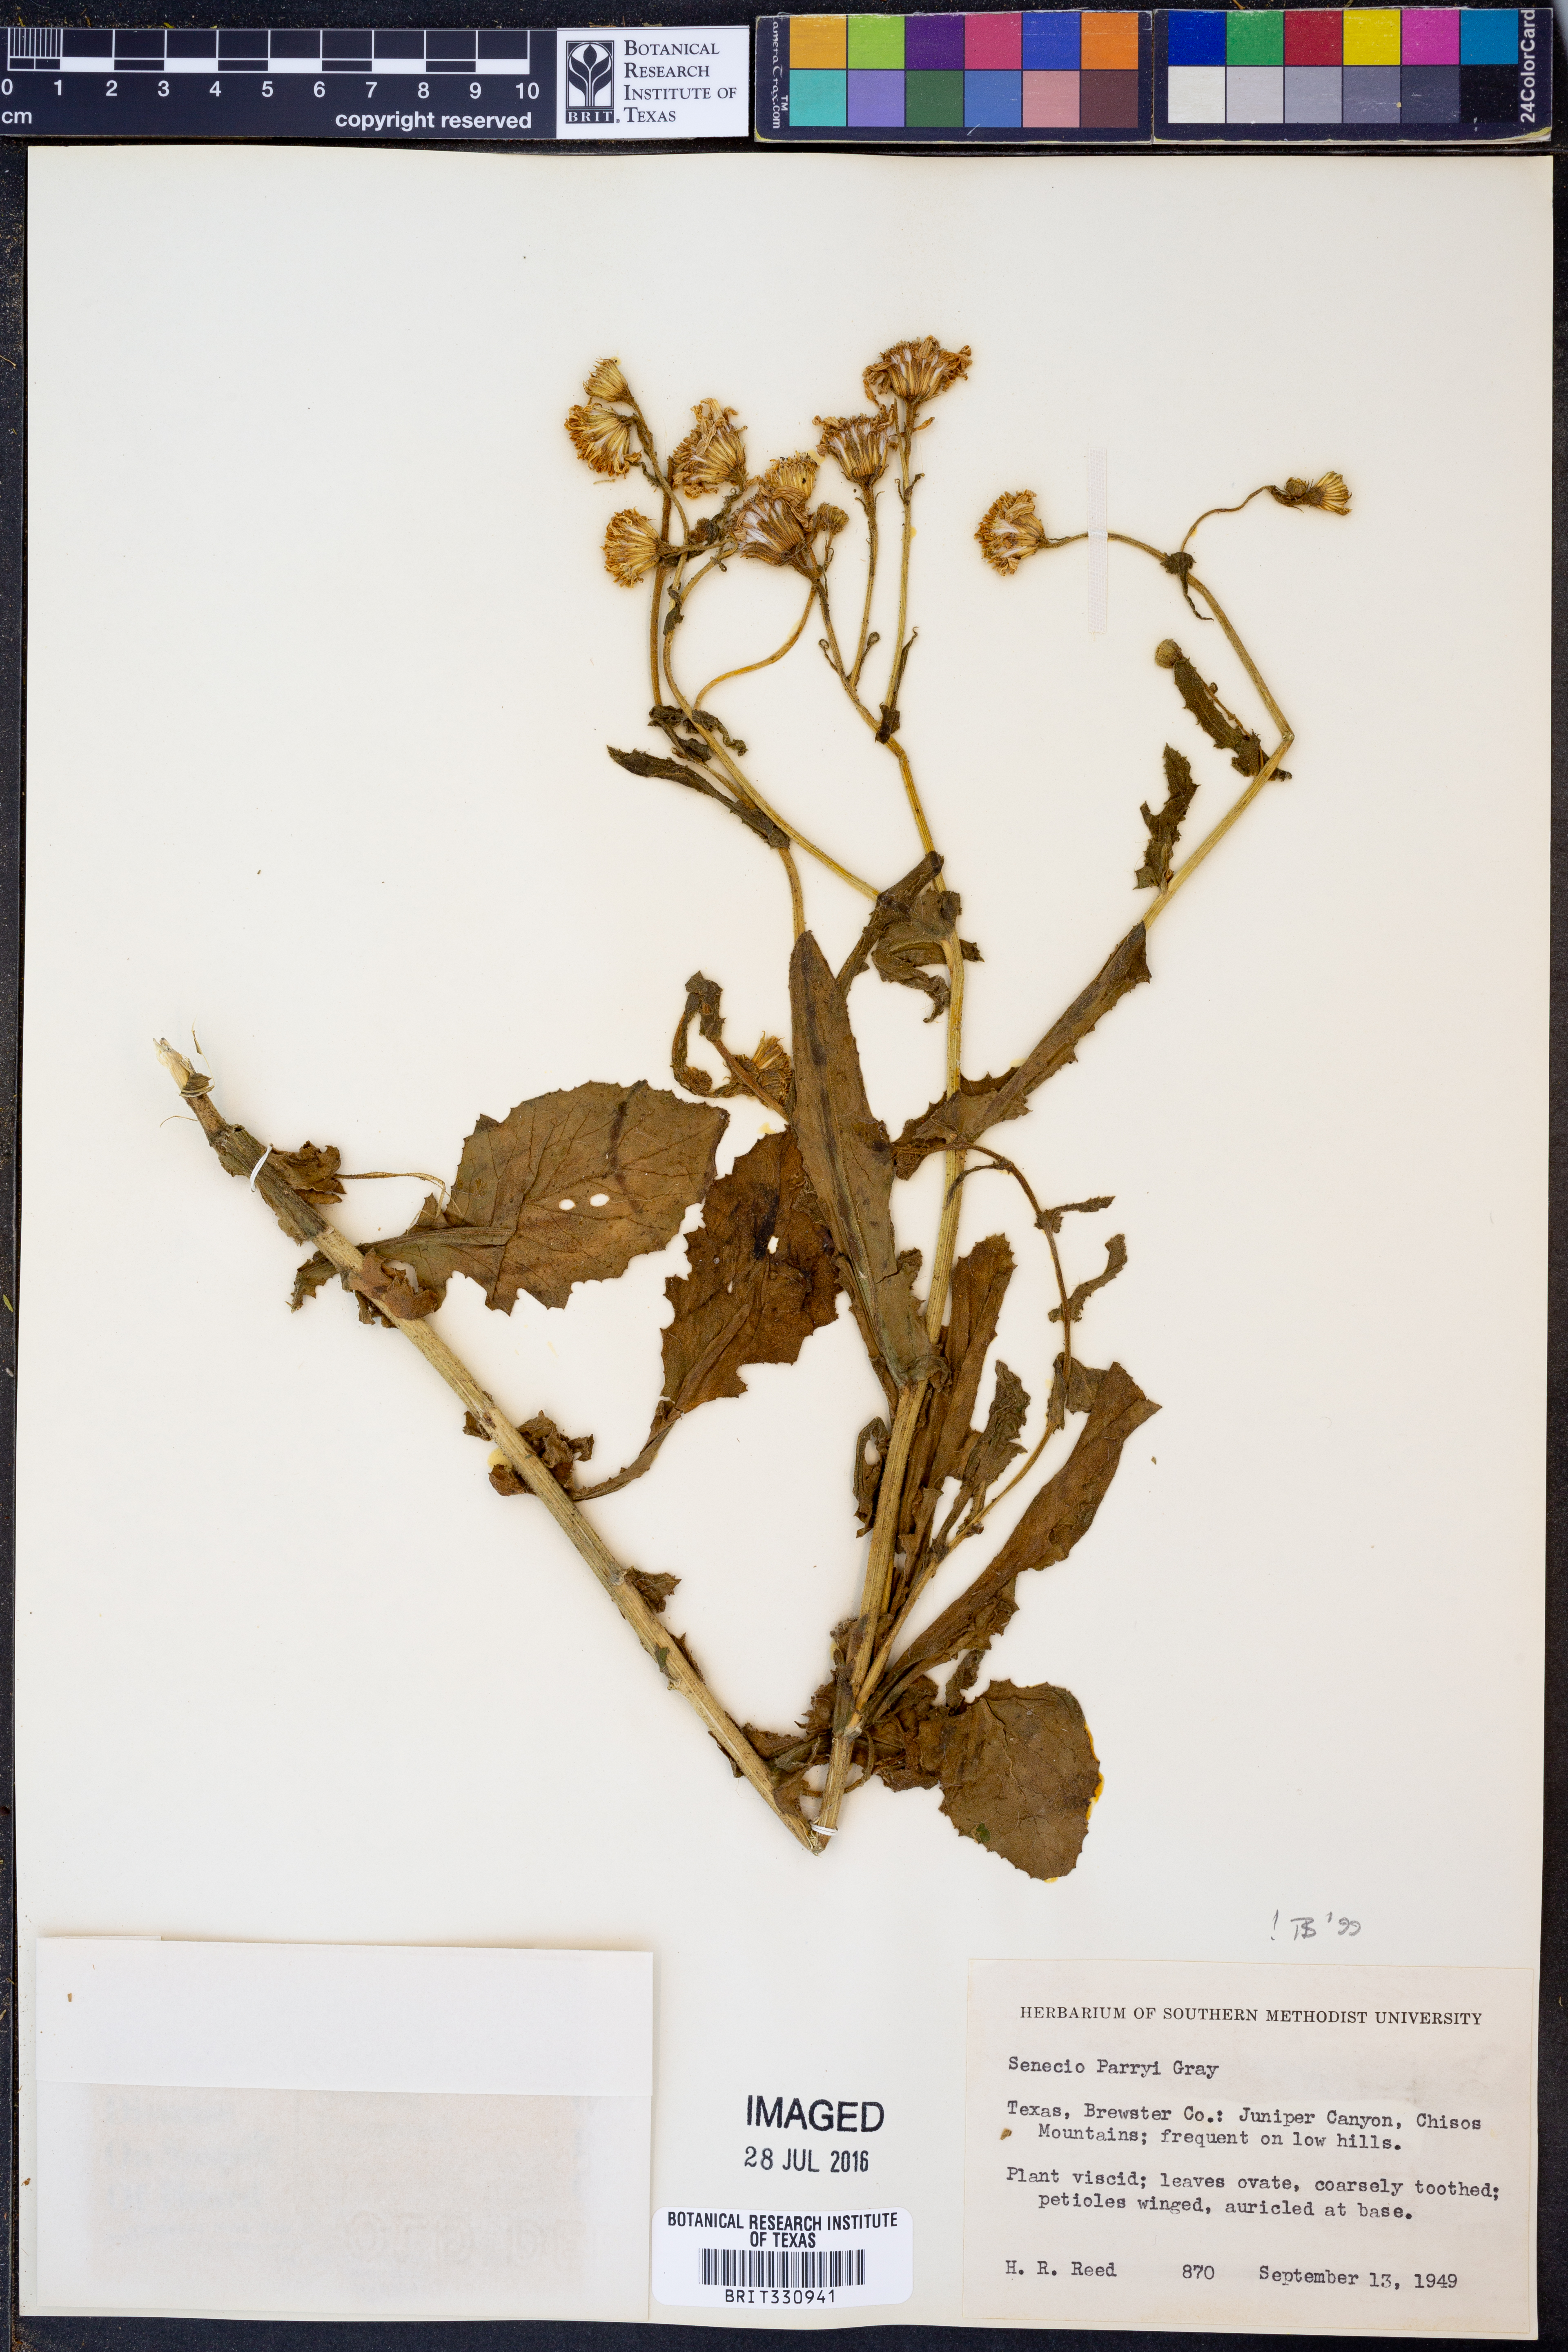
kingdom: Plantae
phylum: Tracheophyta
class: Magnoliopsida
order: Asterales
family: Asteraceae
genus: Senecio
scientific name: Senecio parryi
